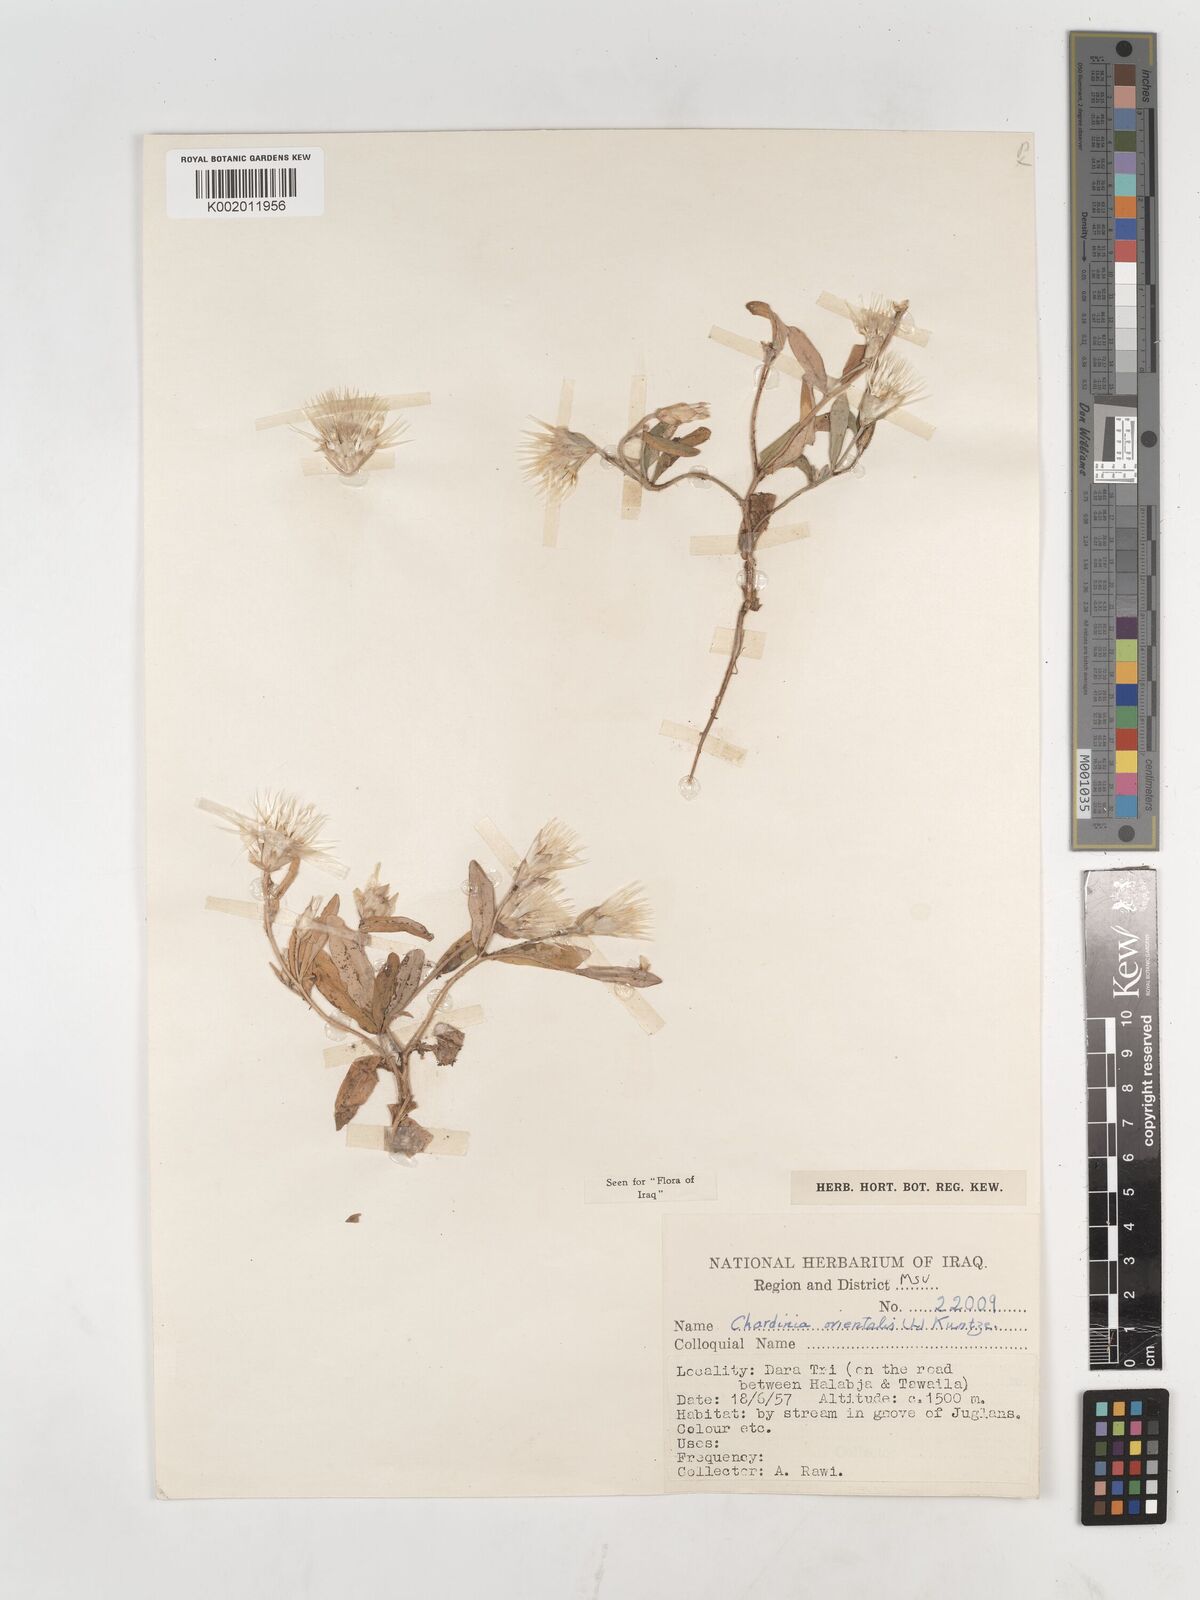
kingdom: Plantae
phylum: Tracheophyta
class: Magnoliopsida
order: Asterales
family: Asteraceae
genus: Chardinia
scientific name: Chardinia orientalis
